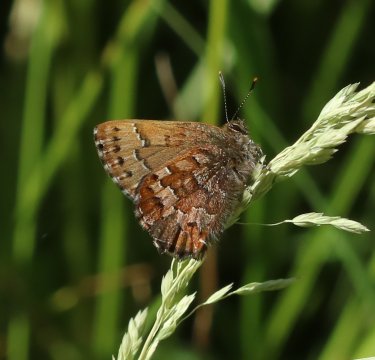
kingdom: Animalia
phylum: Arthropoda
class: Insecta
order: Lepidoptera
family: Lycaenidae
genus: Incisalia
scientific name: Incisalia niphon
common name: Eastern Pine Elfin
